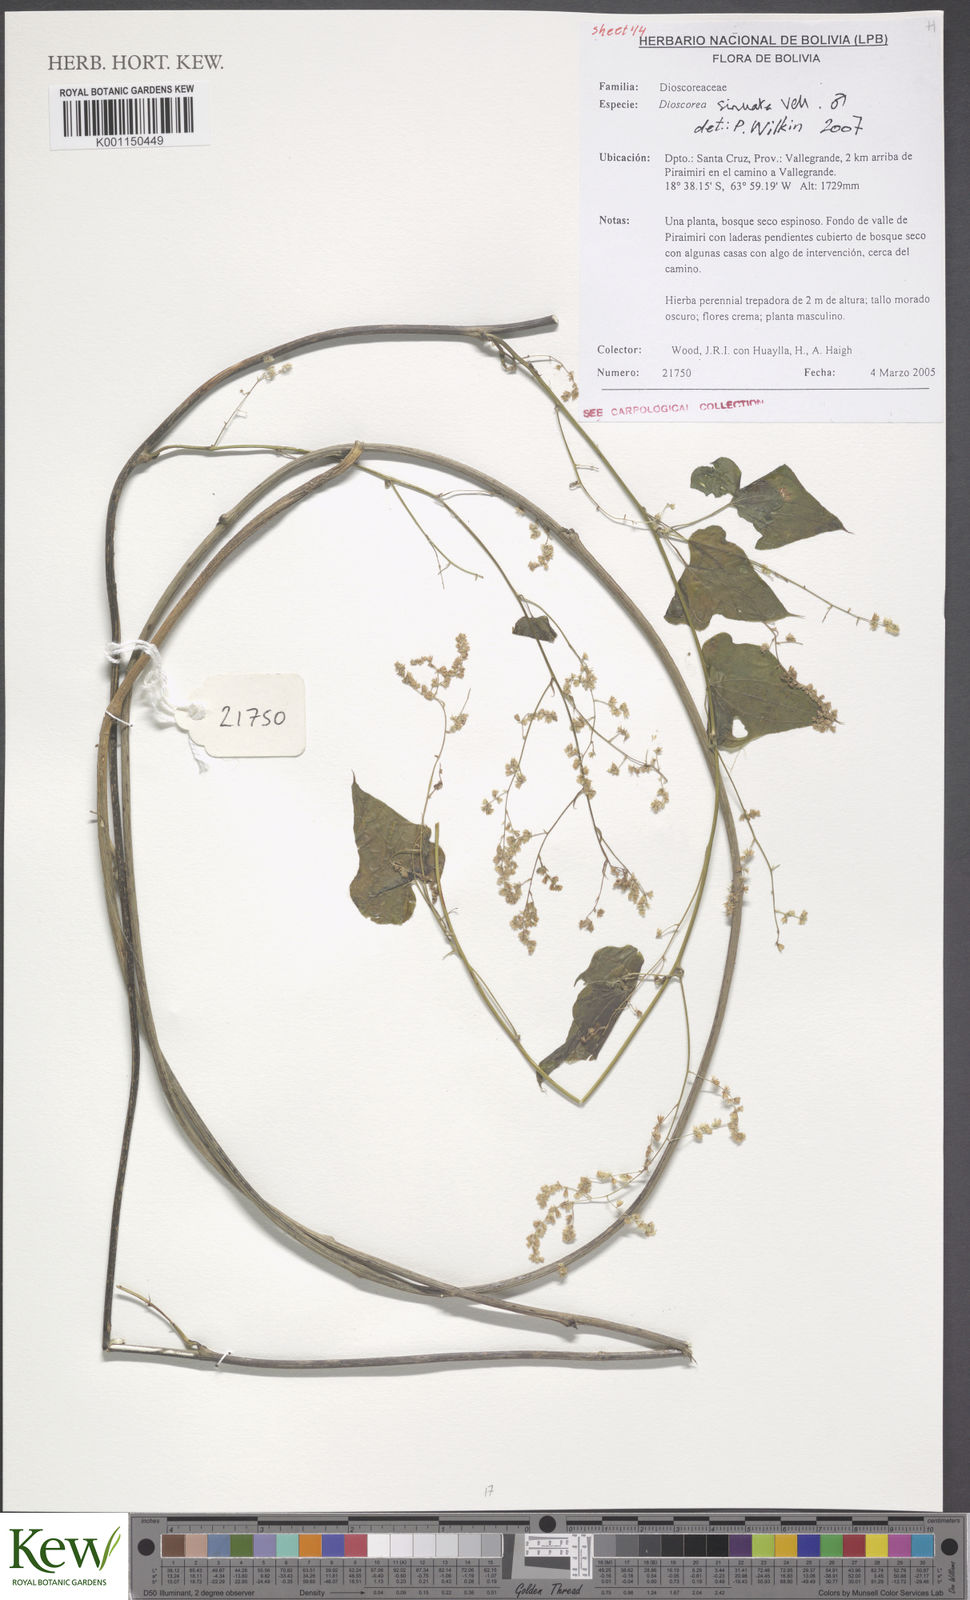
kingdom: Plantae
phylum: Tracheophyta
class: Liliopsida
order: Dioscoreales
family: Dioscoreaceae
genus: Dioscorea
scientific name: Dioscorea sinuata
